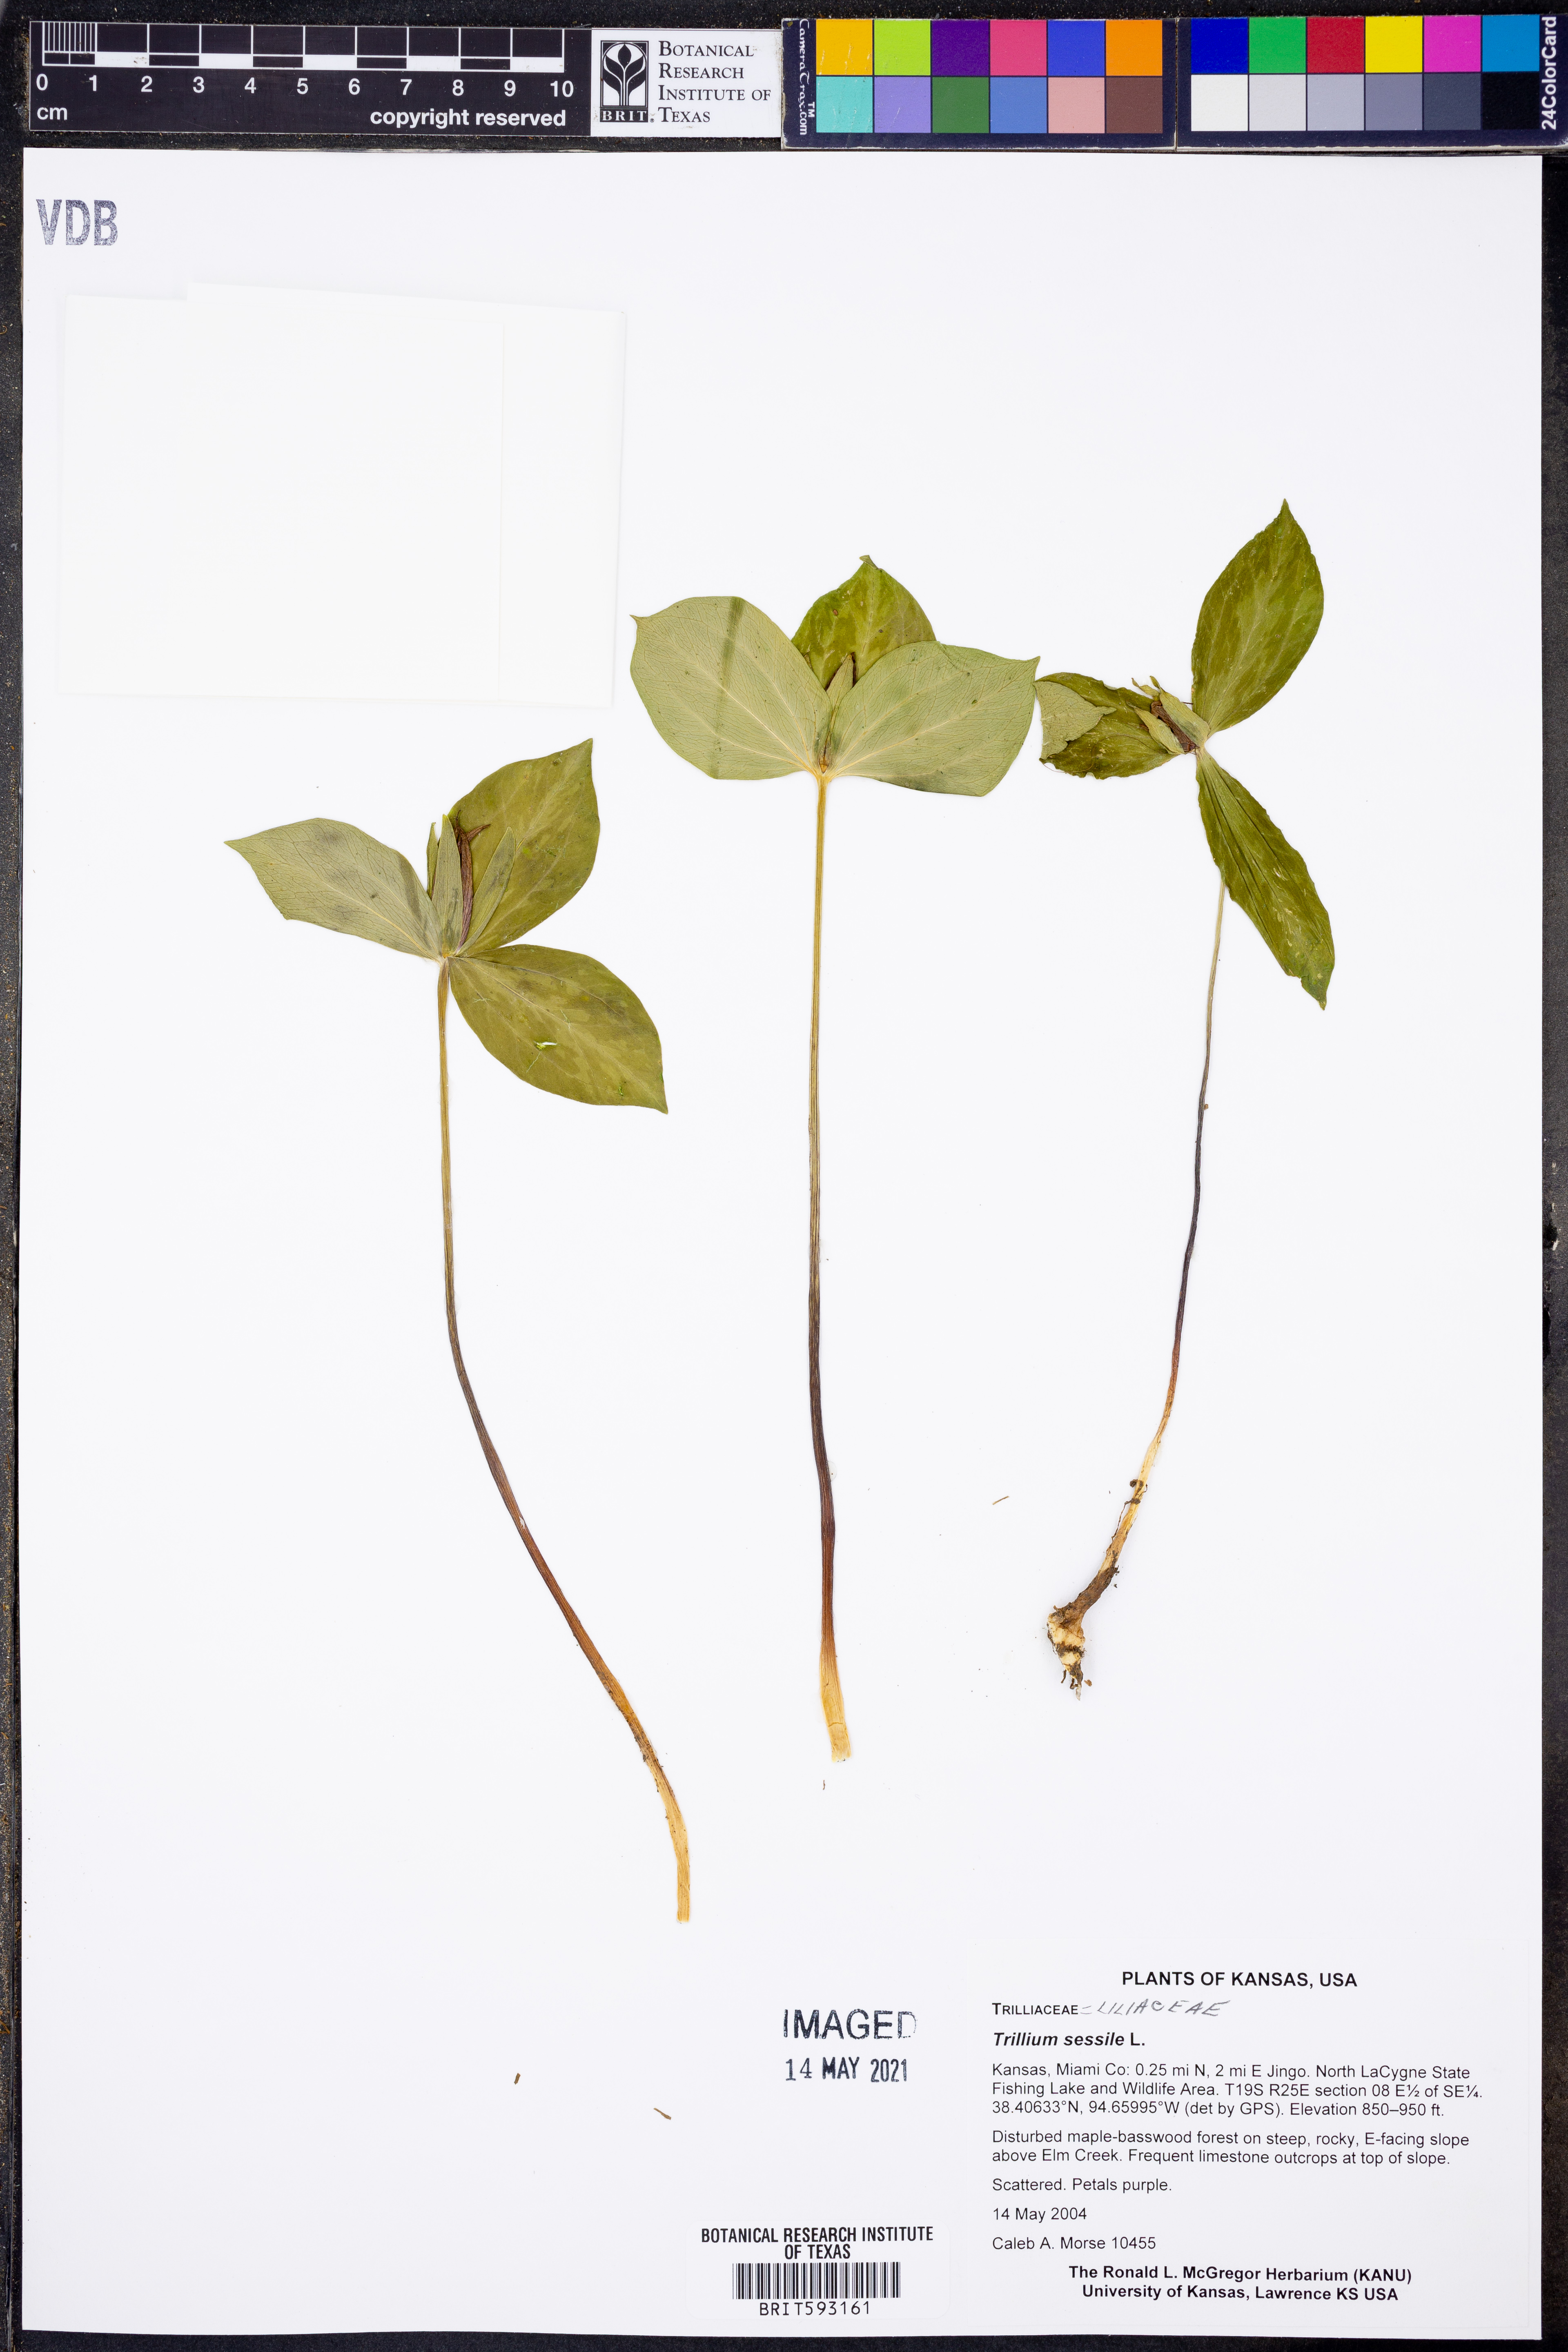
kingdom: Plantae
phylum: Tracheophyta
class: Liliopsida
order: Liliales
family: Melanthiaceae
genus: Trillium
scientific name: Trillium sessile
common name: Sessile trillium
